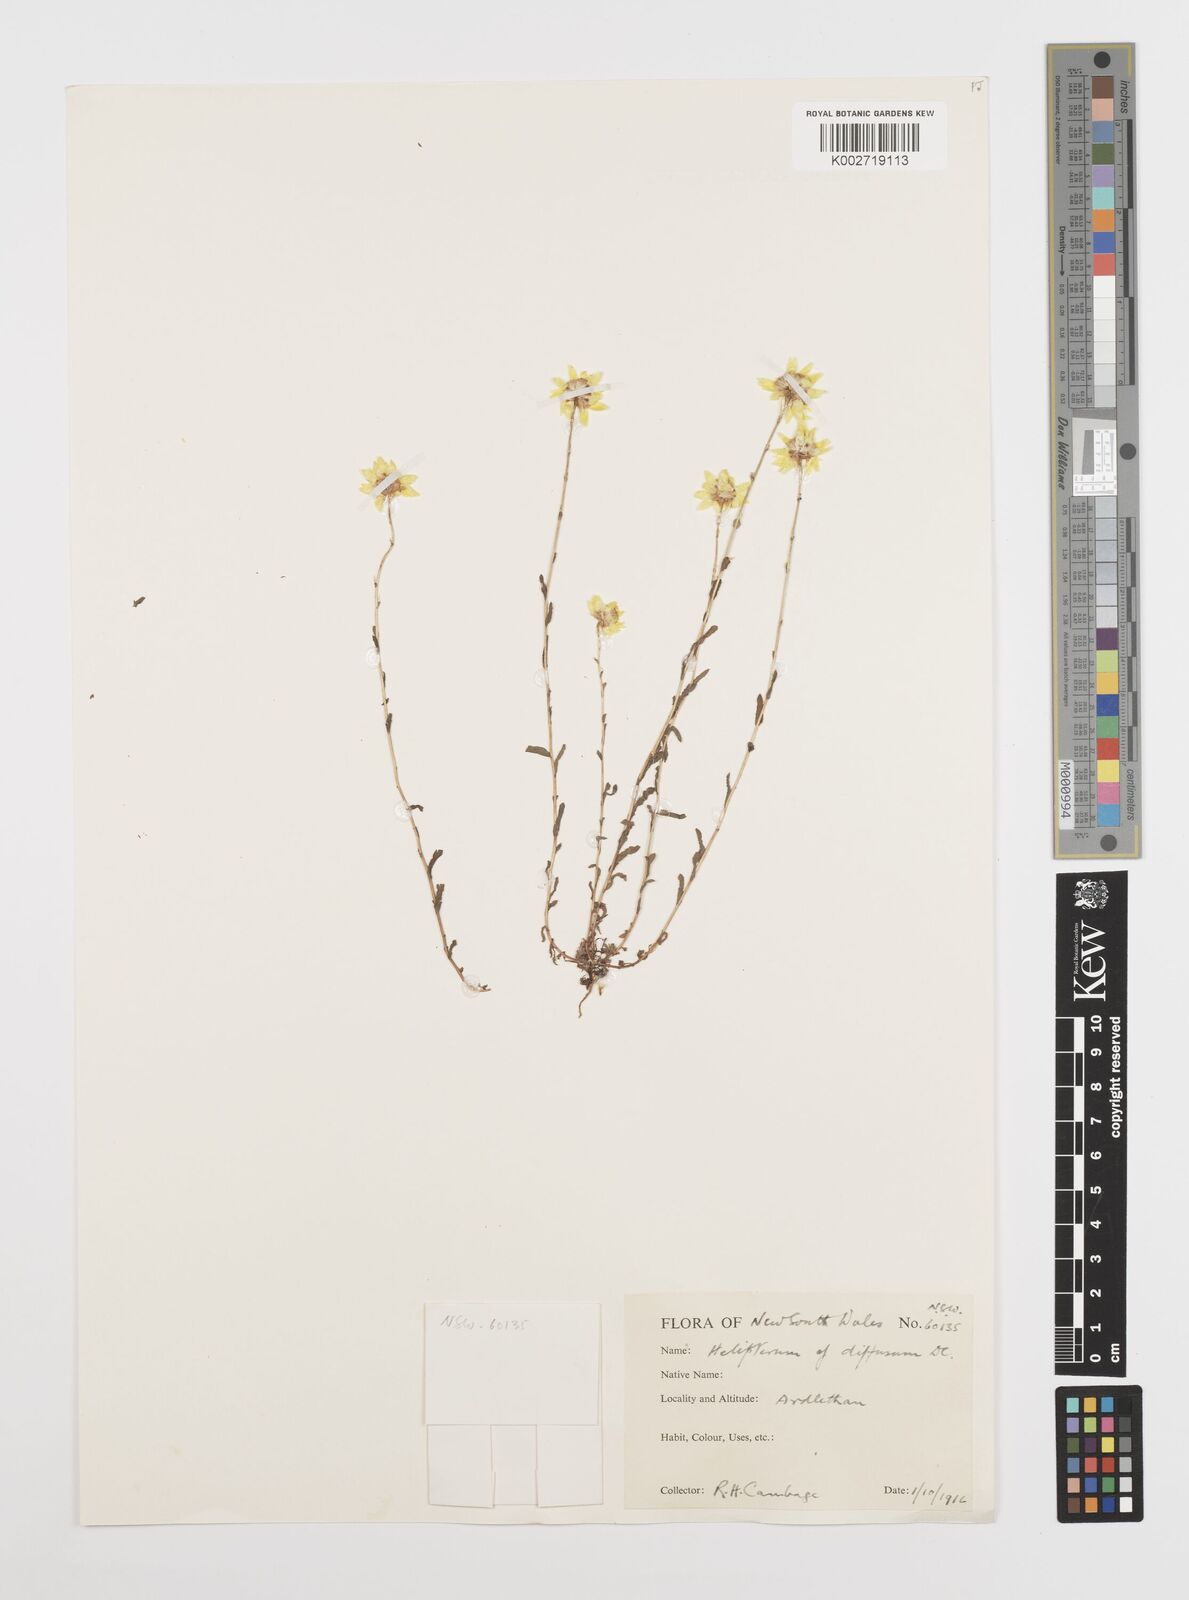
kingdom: Plantae
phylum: Tracheophyta
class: Magnoliopsida
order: Asterales
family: Asteraceae
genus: Rhodanthe
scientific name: Rhodanthe diffusa
